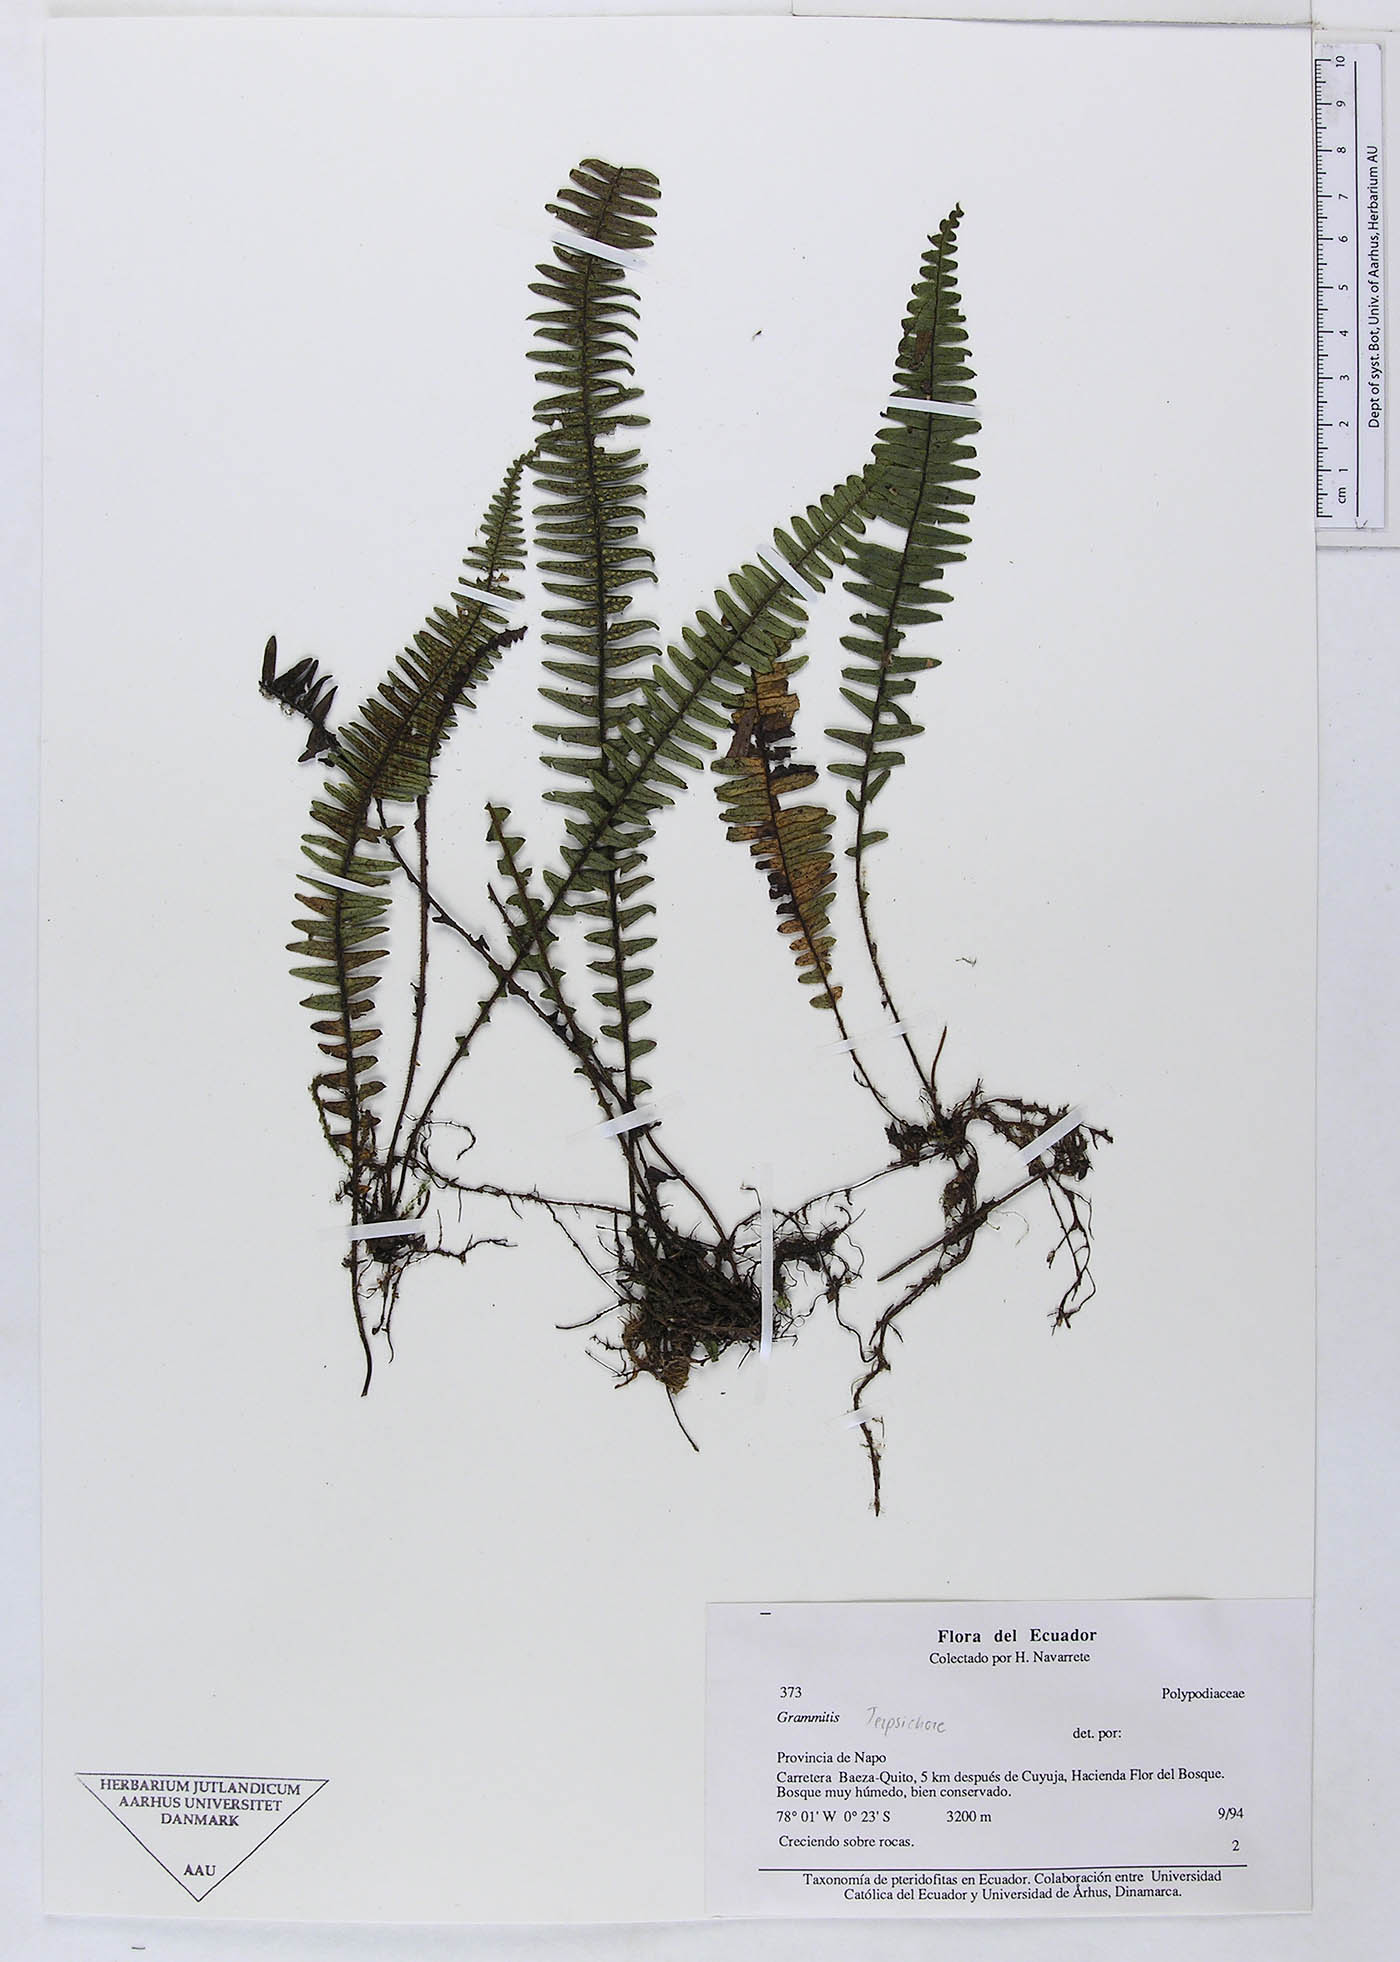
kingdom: Plantae
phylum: Tracheophyta
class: Polypodiopsida
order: Polypodiales
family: Polypodiaceae
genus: Grammitis
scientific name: Grammitis
